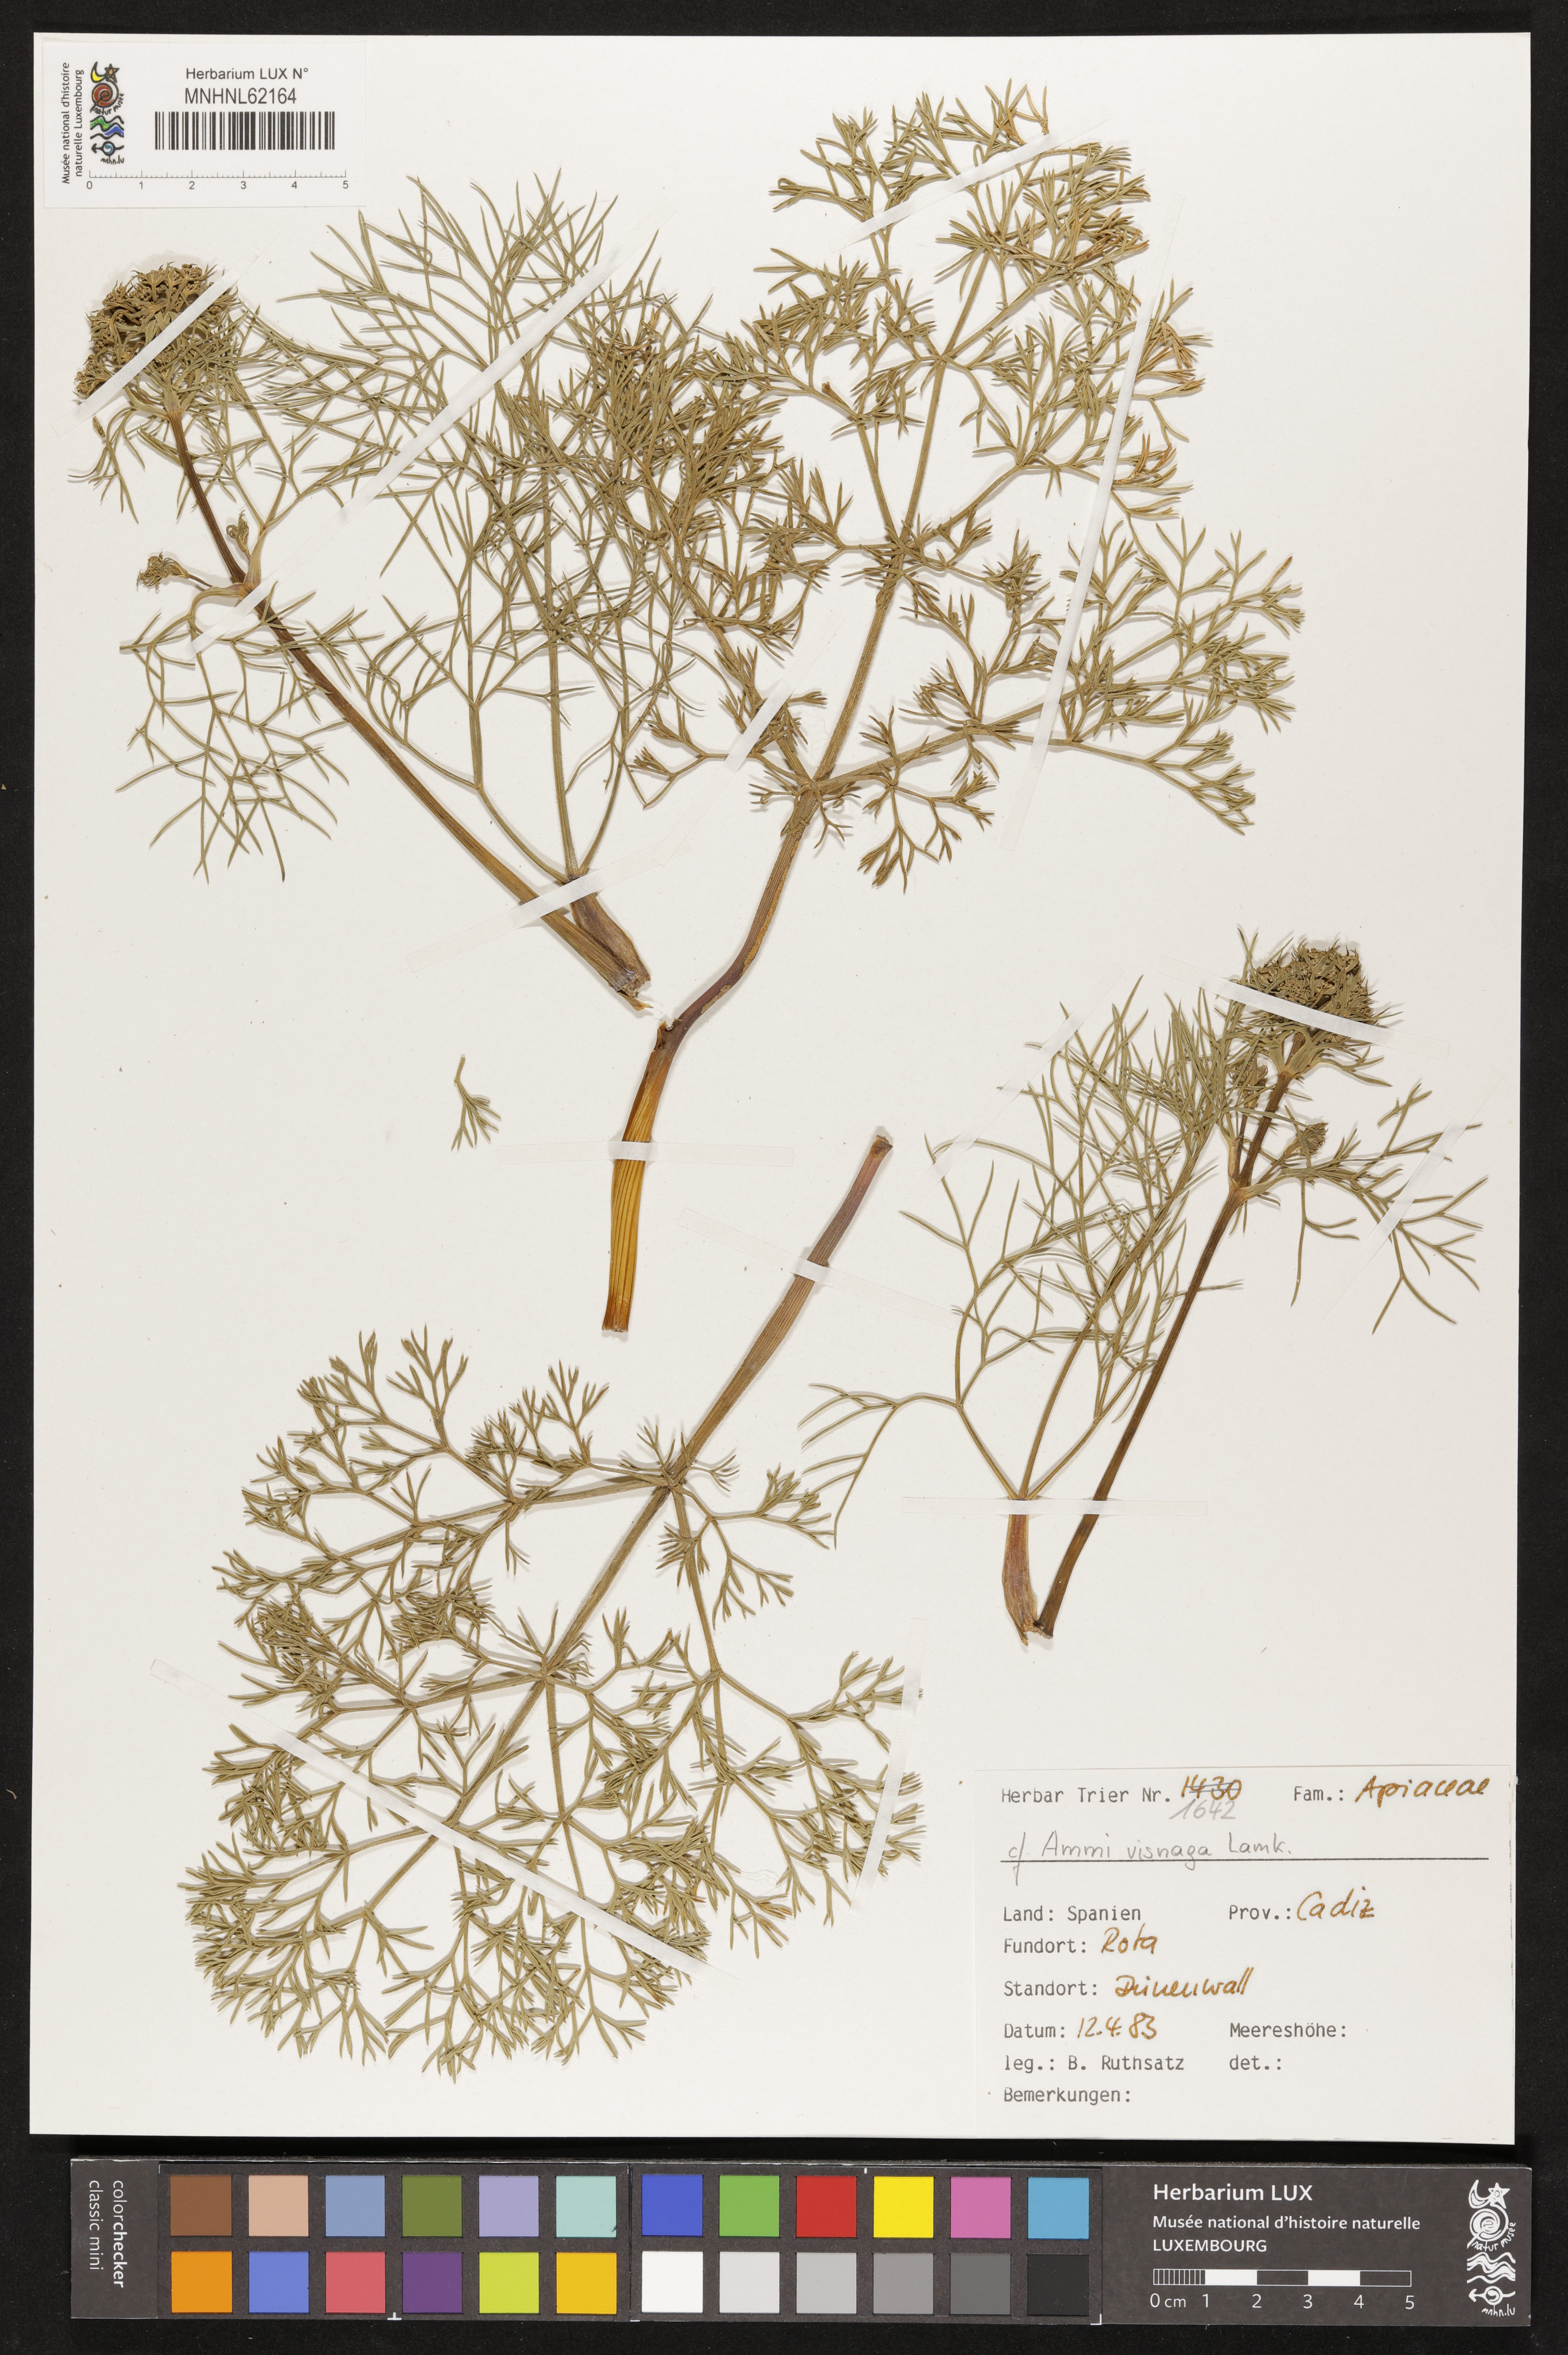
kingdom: Plantae
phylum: Tracheophyta
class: Magnoliopsida
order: Apiales
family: Apiaceae
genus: Visnaga
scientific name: Visnaga daucoides
